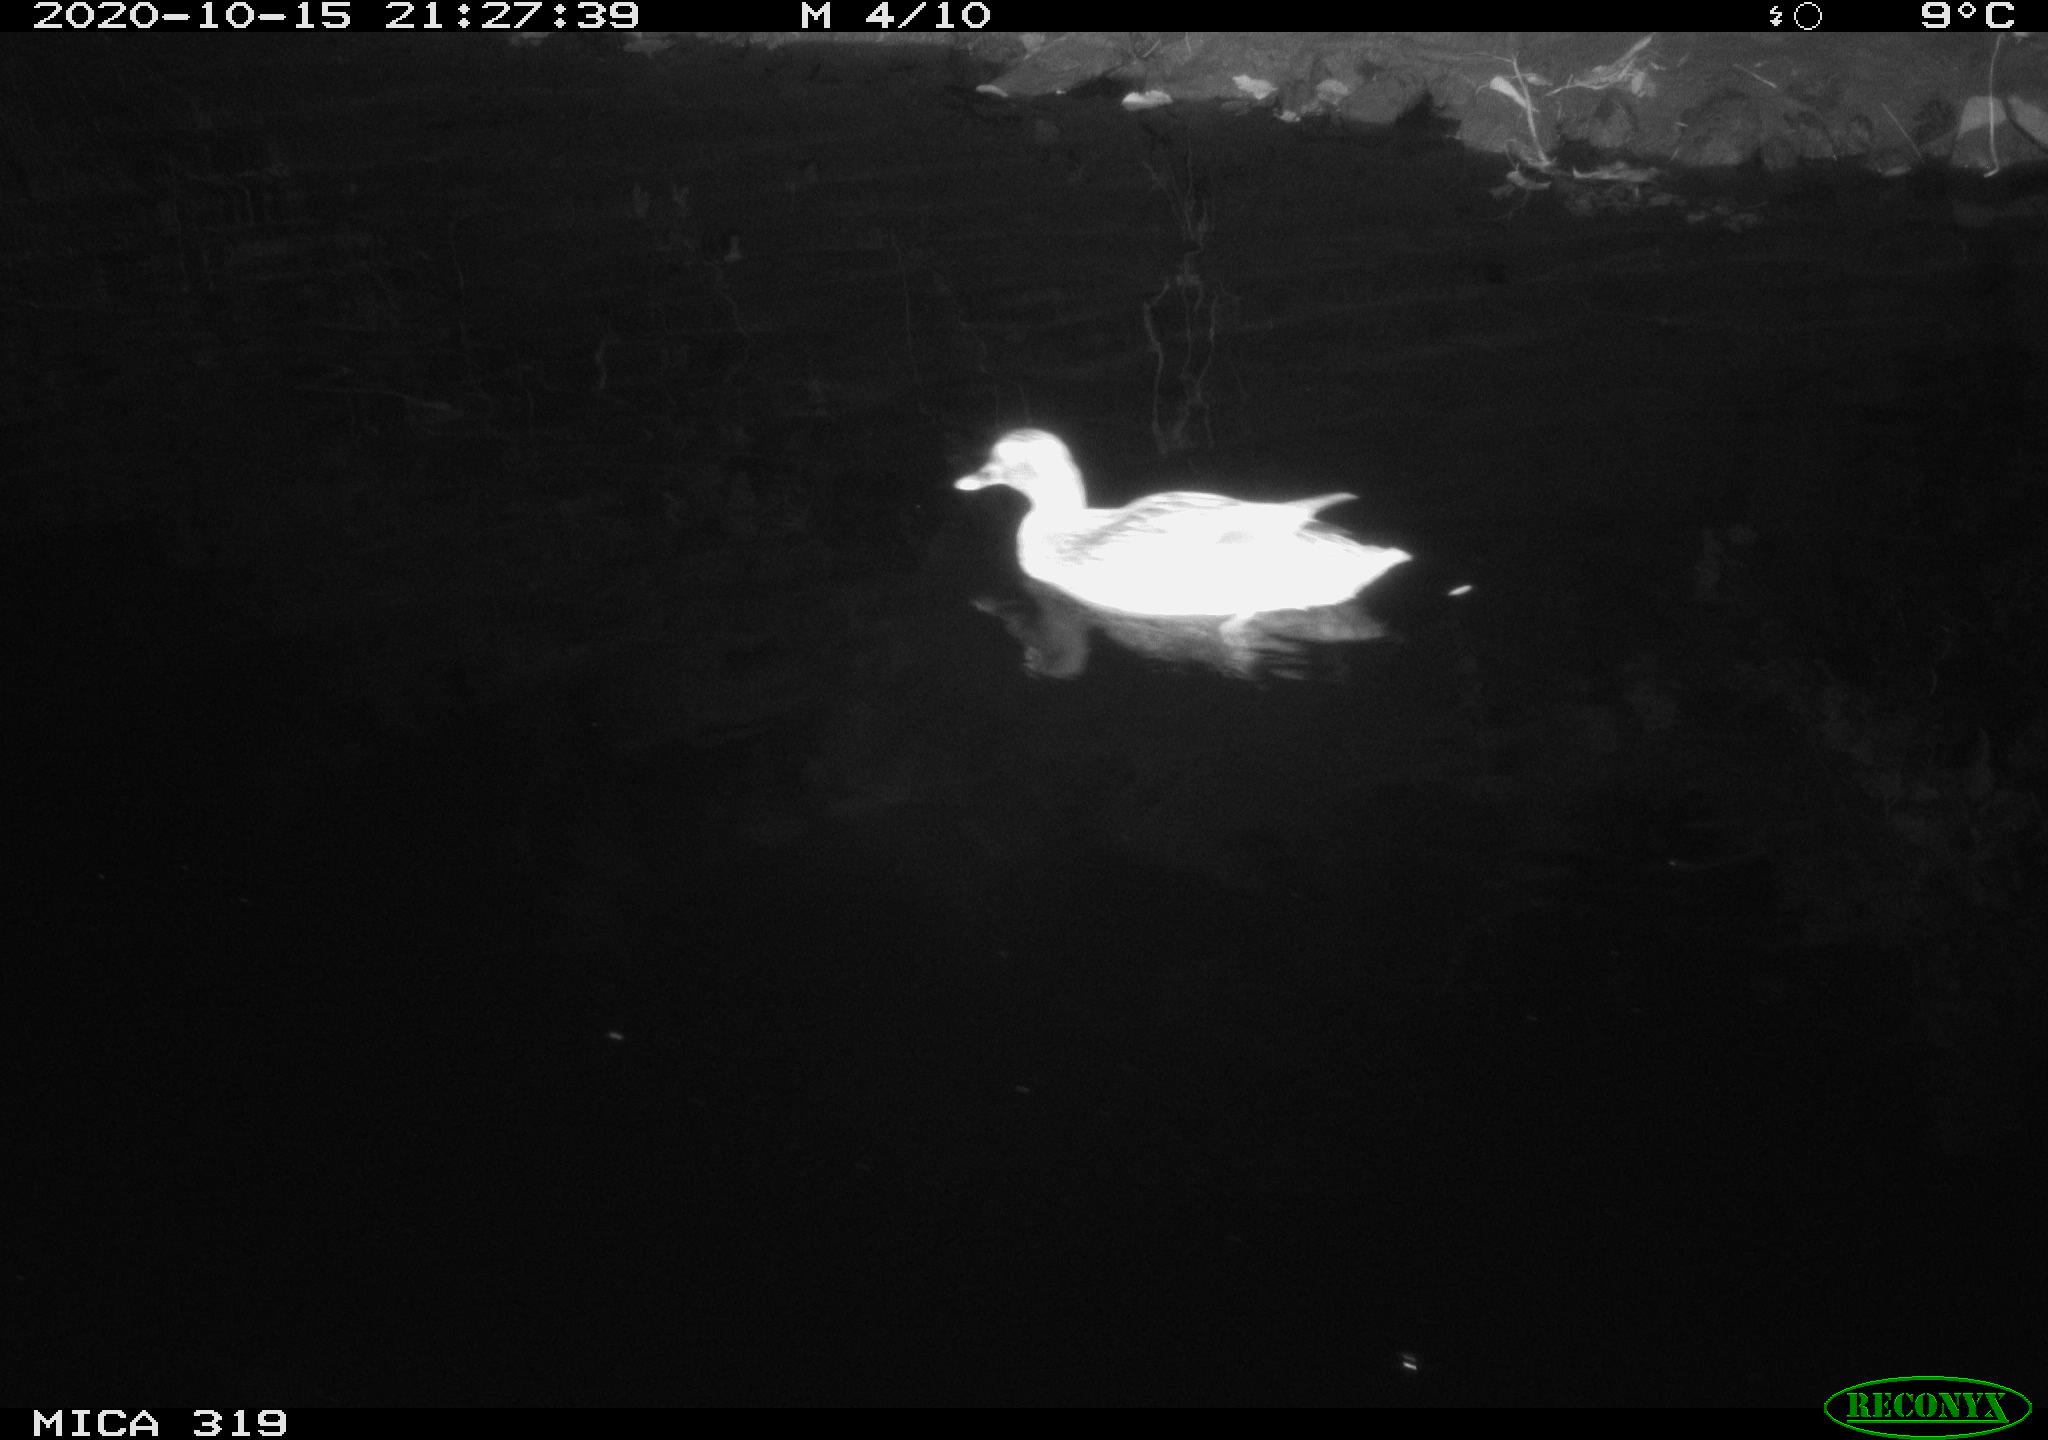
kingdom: Animalia
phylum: Chordata
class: Aves
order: Anseriformes
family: Anatidae
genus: Anas
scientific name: Anas platyrhynchos
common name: Mallard
